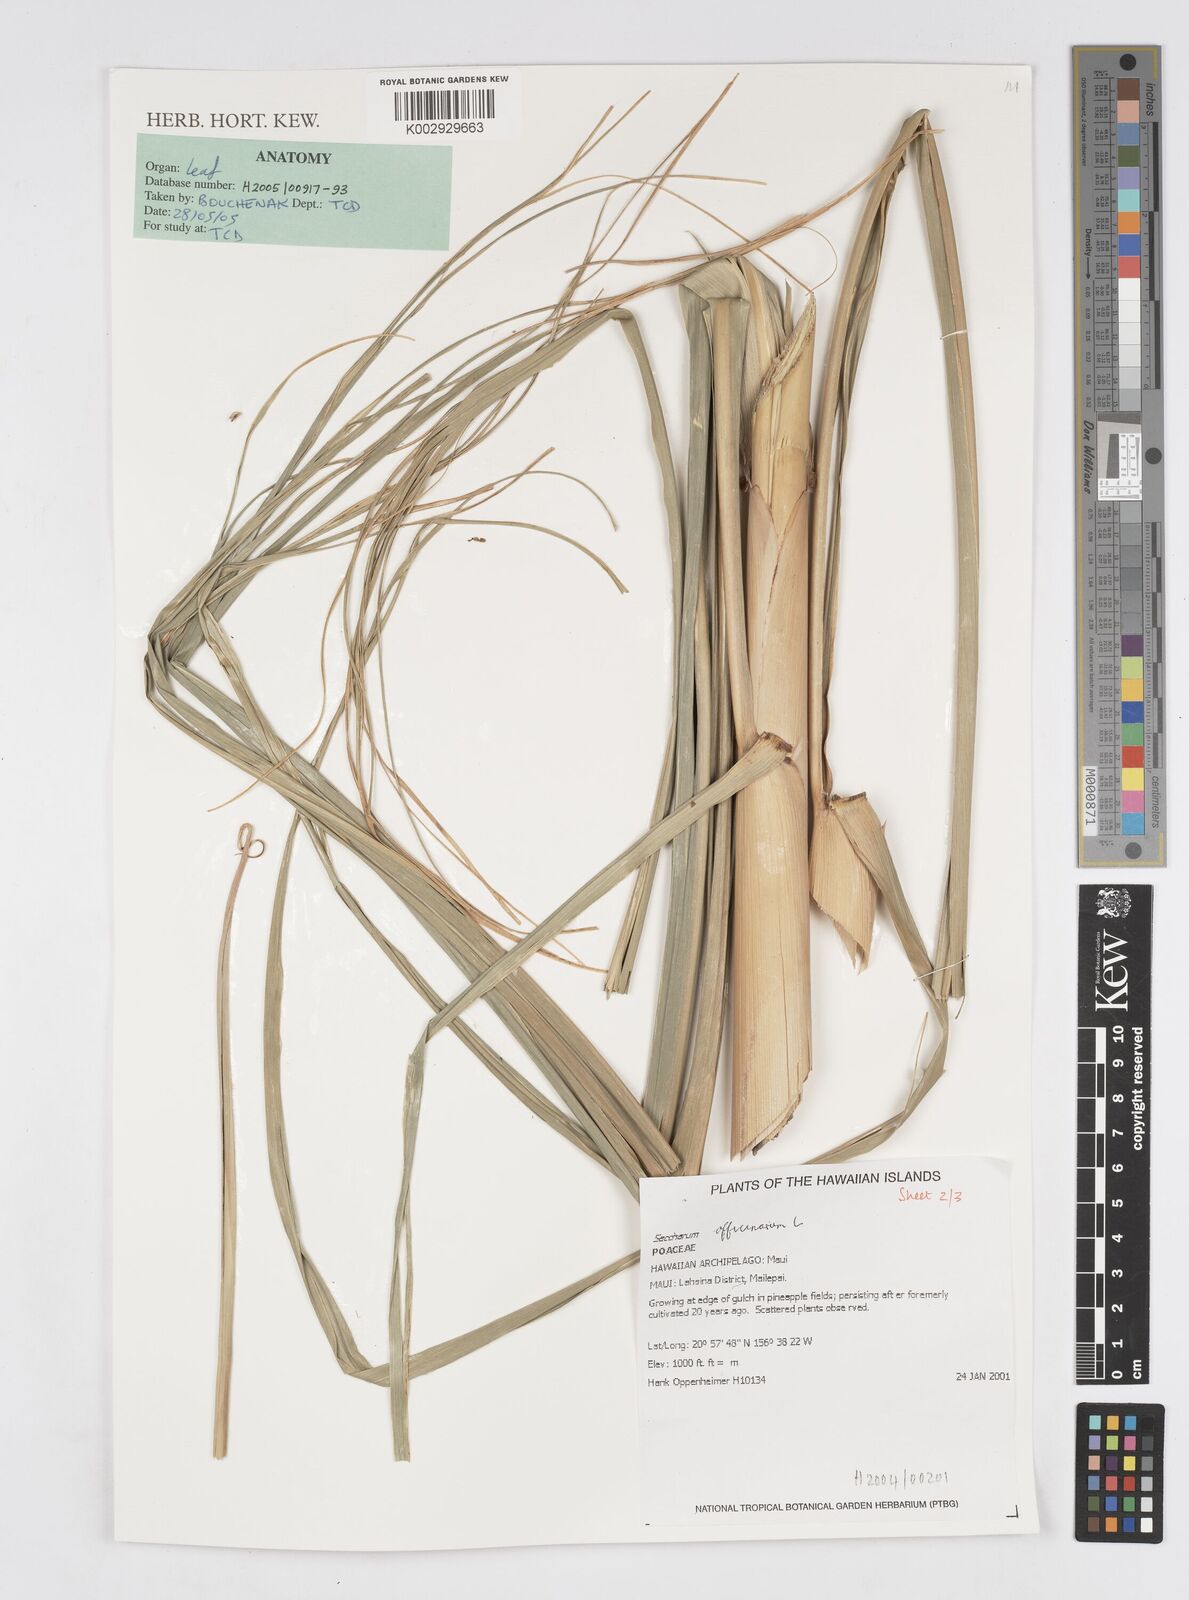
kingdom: Plantae
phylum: Tracheophyta
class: Liliopsida
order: Poales
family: Poaceae
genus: Saccharum
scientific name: Saccharum officinarum
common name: Sugarcane
